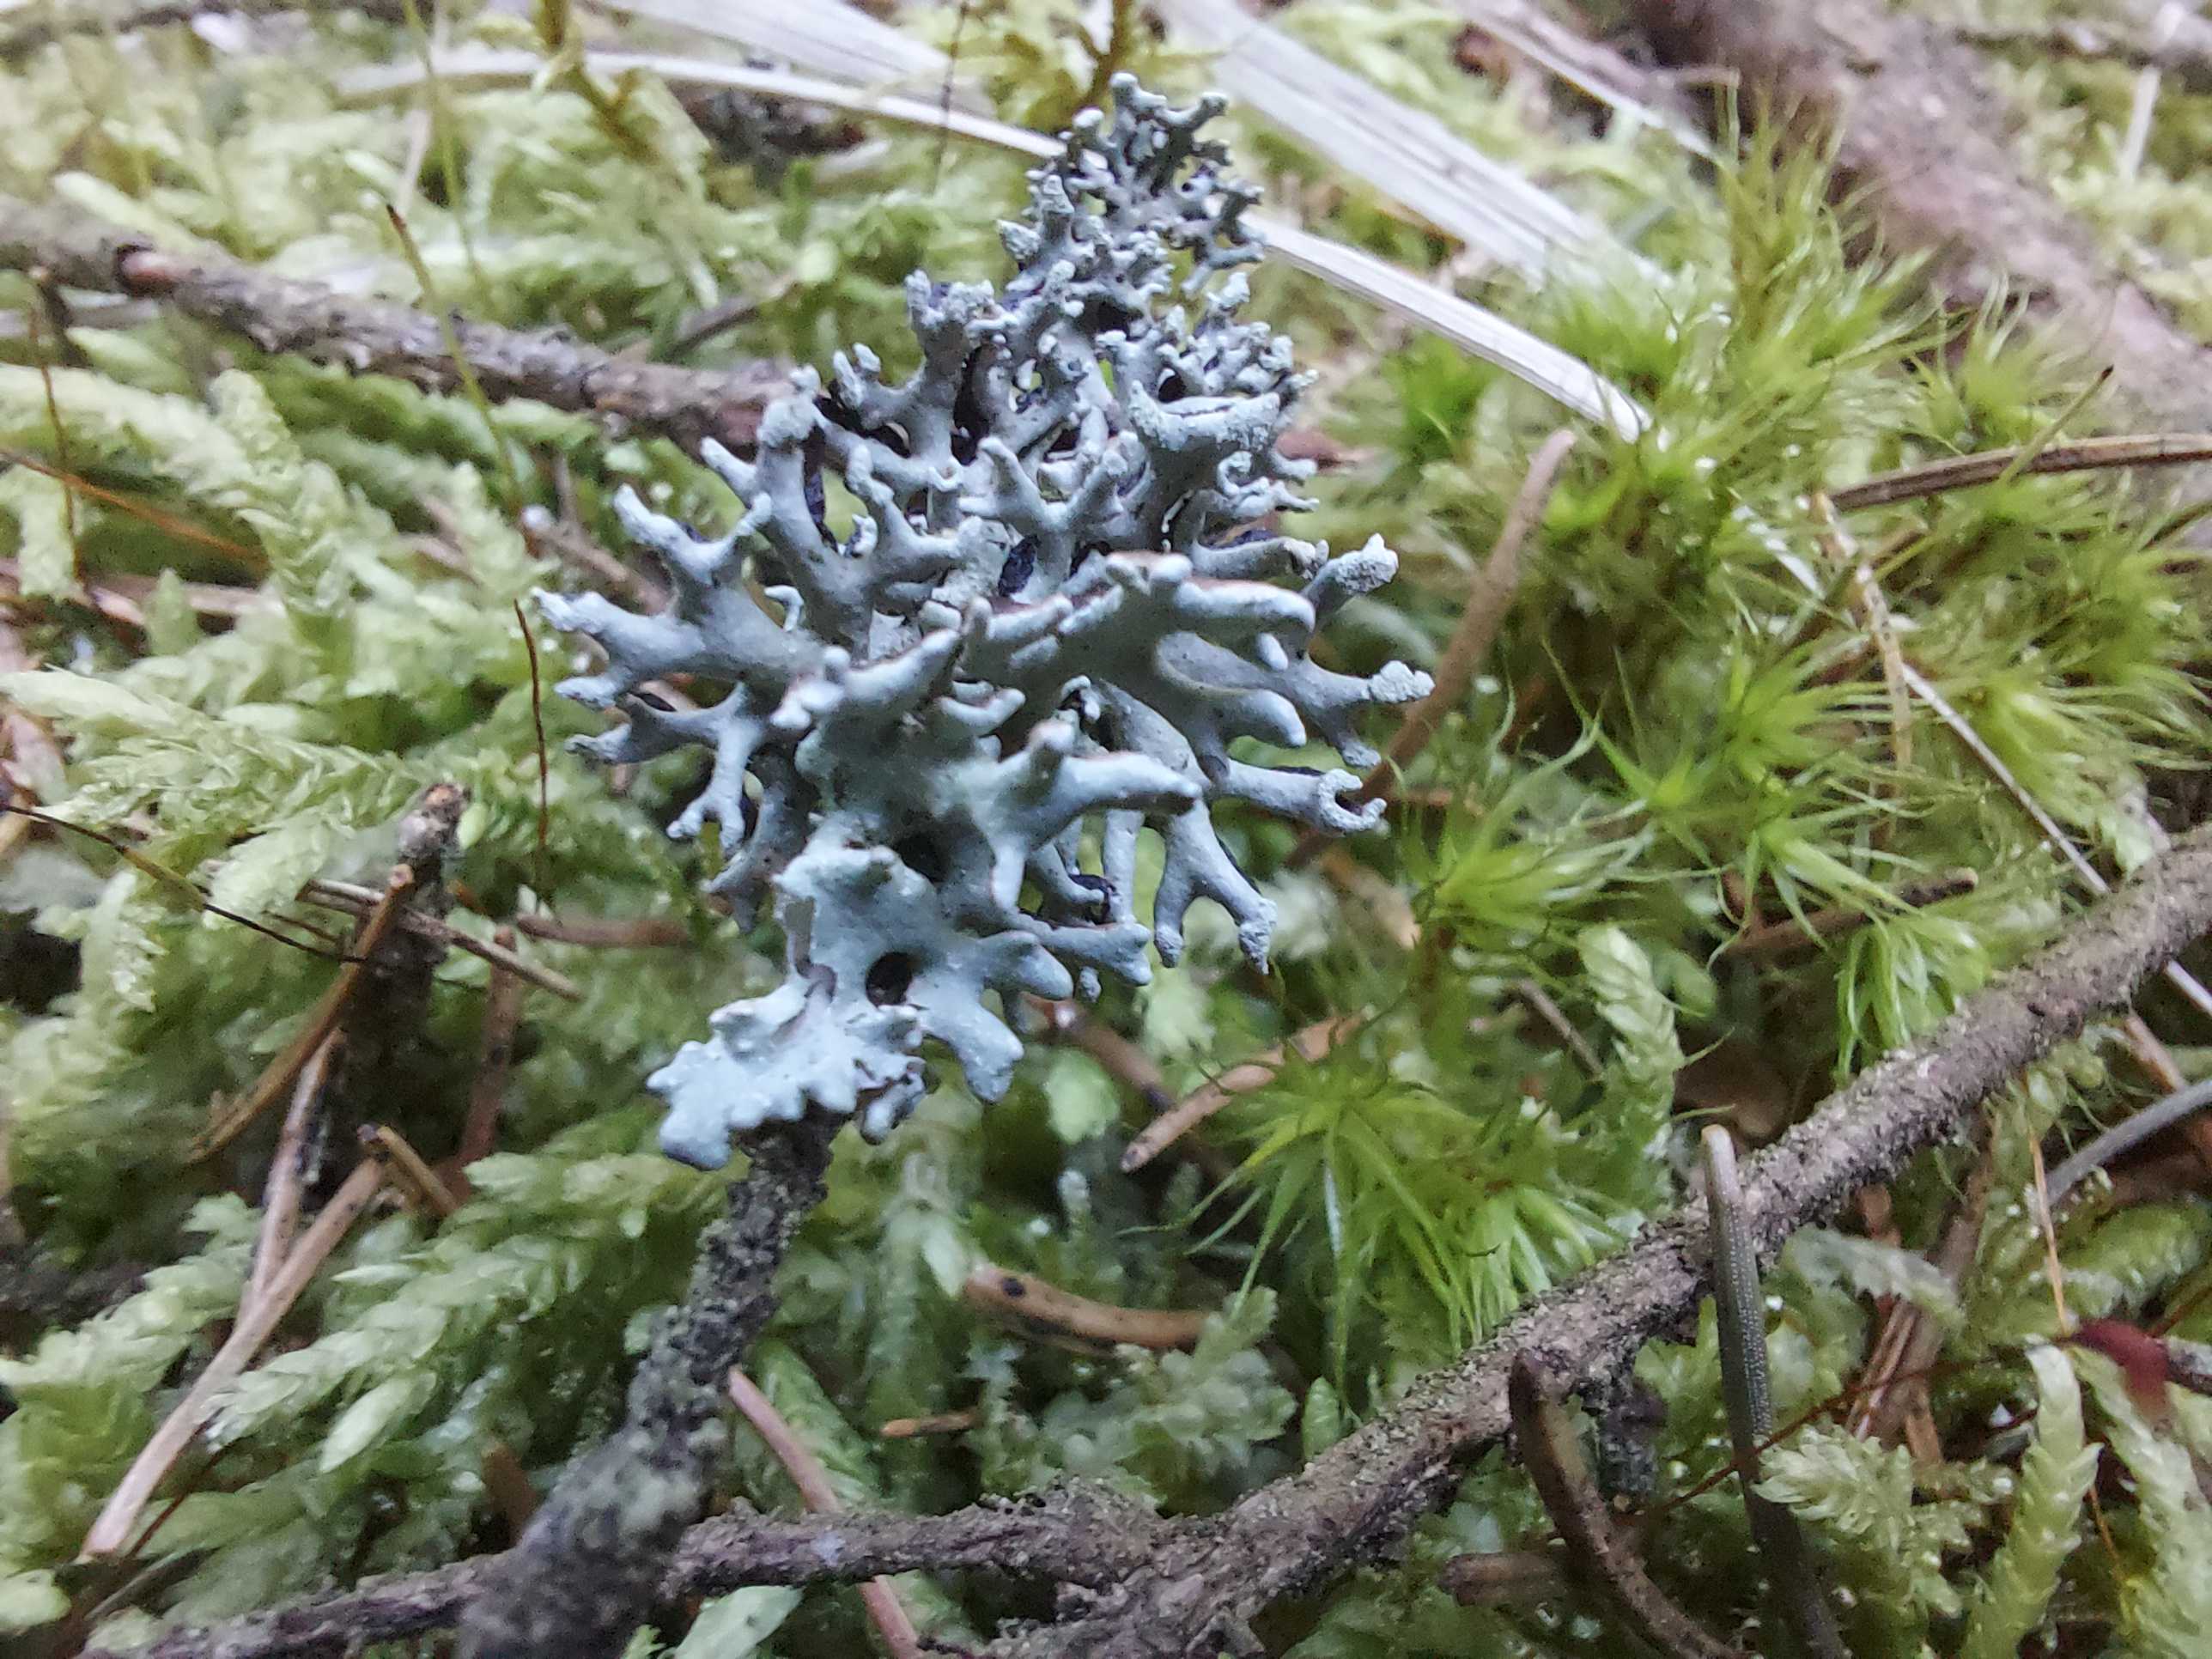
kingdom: Fungi
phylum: Ascomycota
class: Lecanoromycetes
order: Lecanorales
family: Parmeliaceae
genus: Hypogymnia
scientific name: Hypogymnia tubulosa
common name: finger-kvistlav
